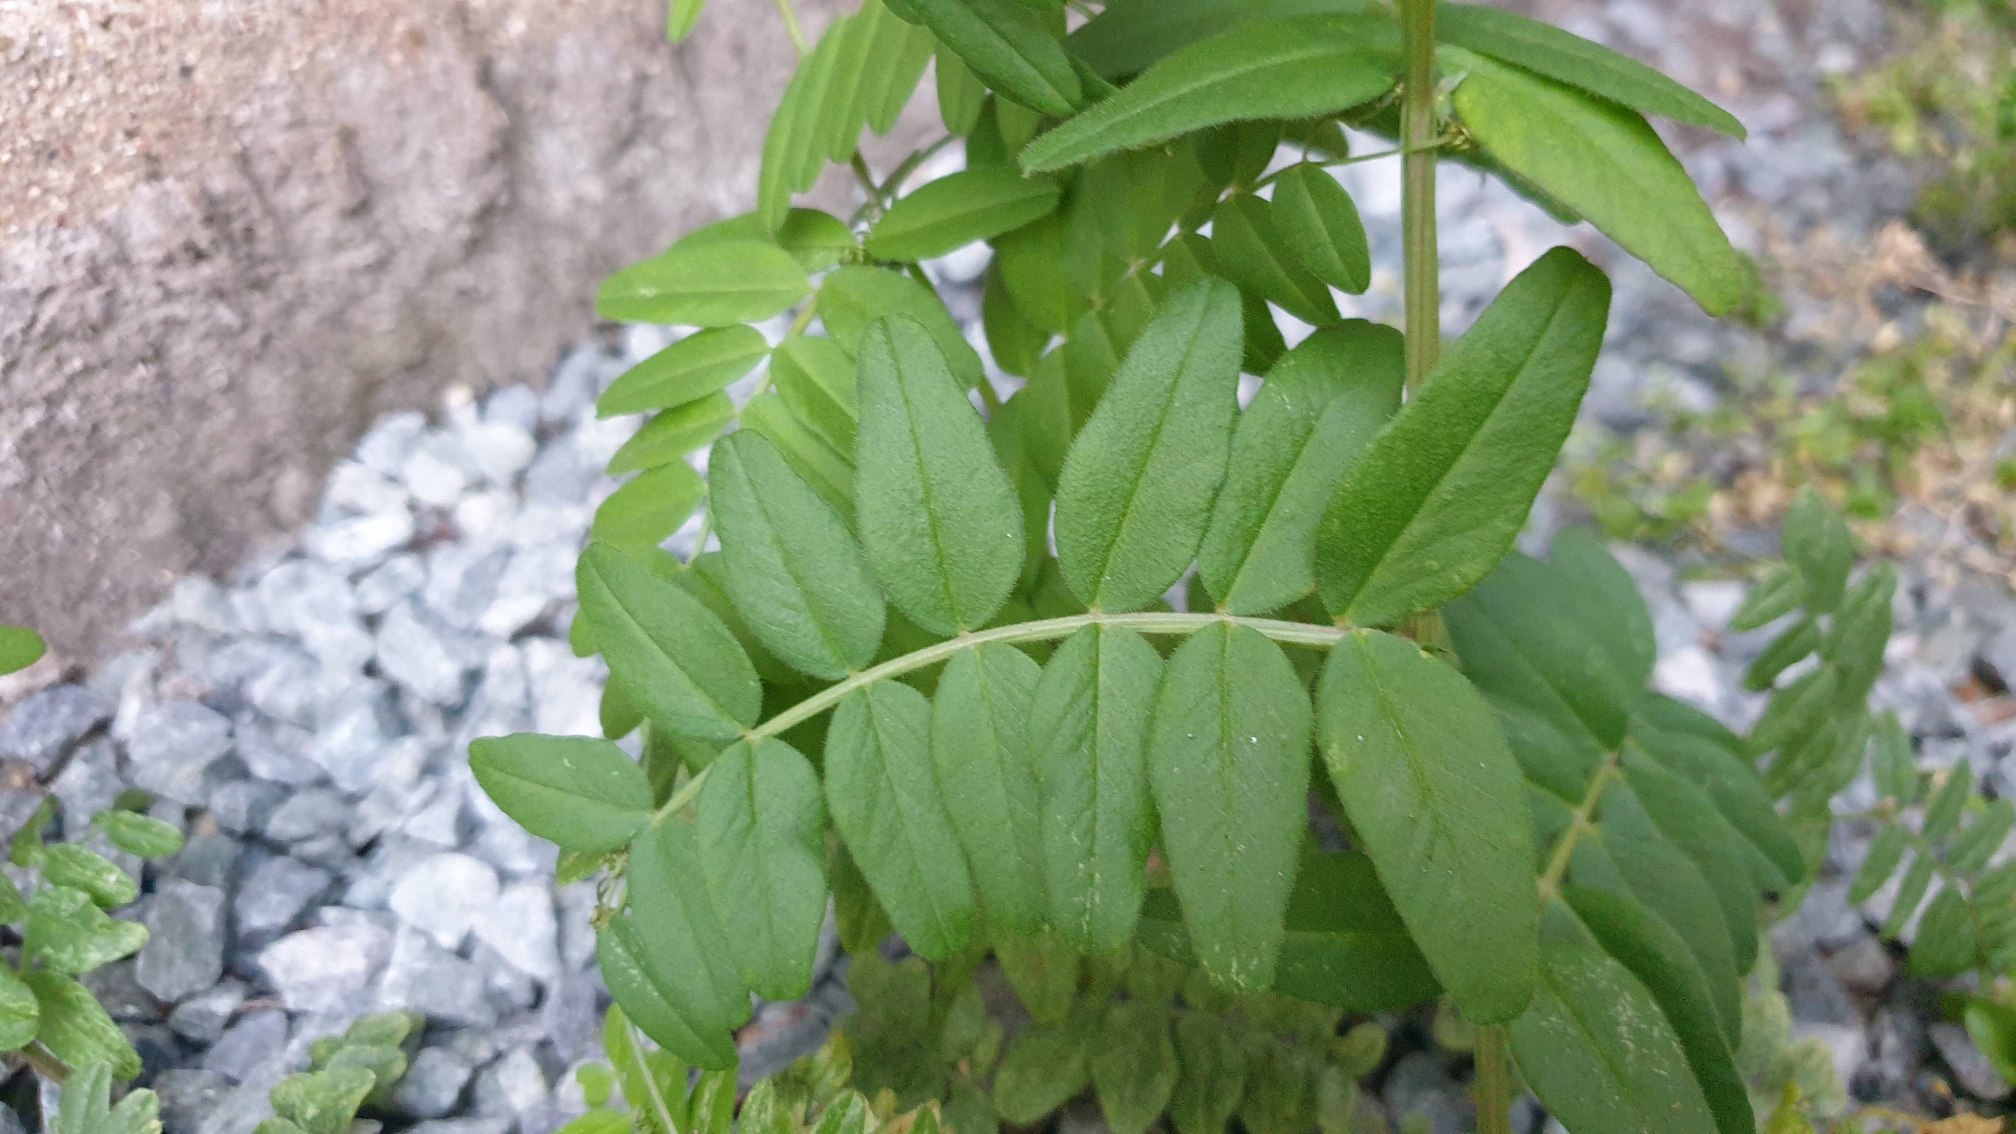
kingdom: Plantae
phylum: Tracheophyta
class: Magnoliopsida
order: Fabales
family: Fabaceae
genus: Vicia
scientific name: Vicia sepium
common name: Gærde-vikke
